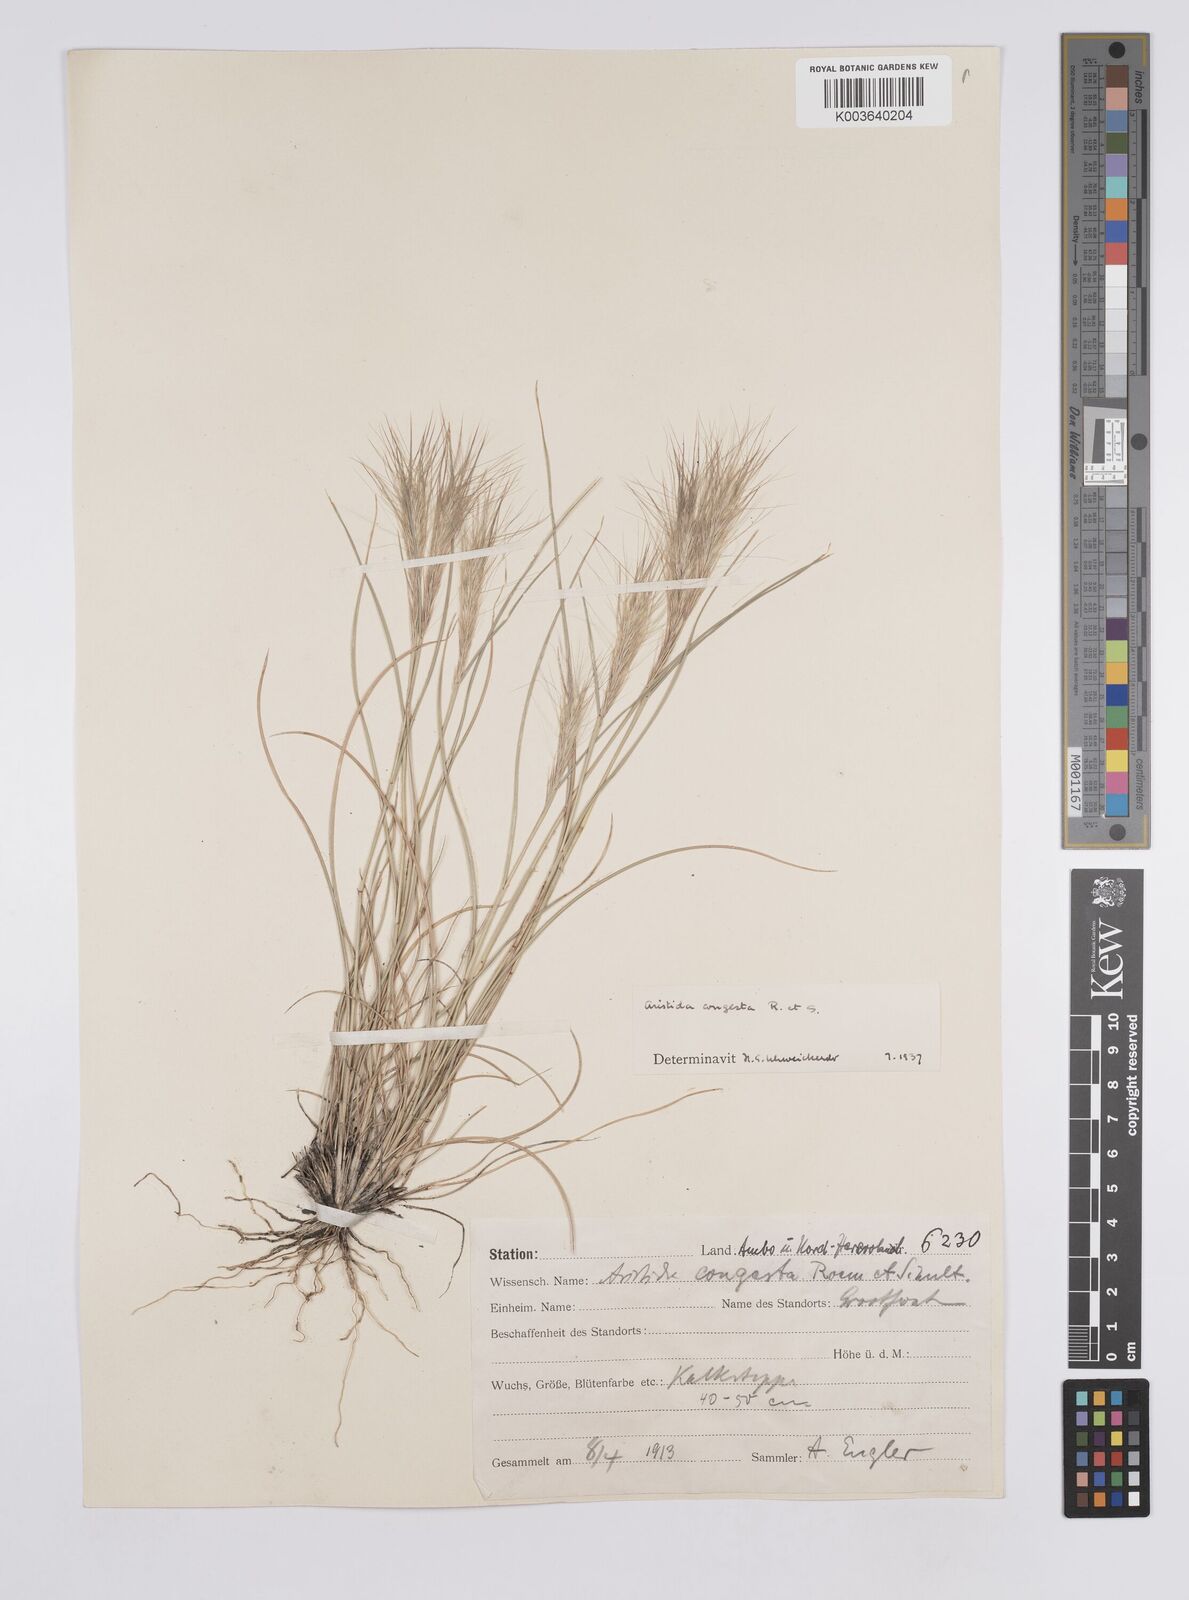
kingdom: Plantae
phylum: Tracheophyta
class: Liliopsida
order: Poales
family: Poaceae
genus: Aristida
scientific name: Aristida congesta
